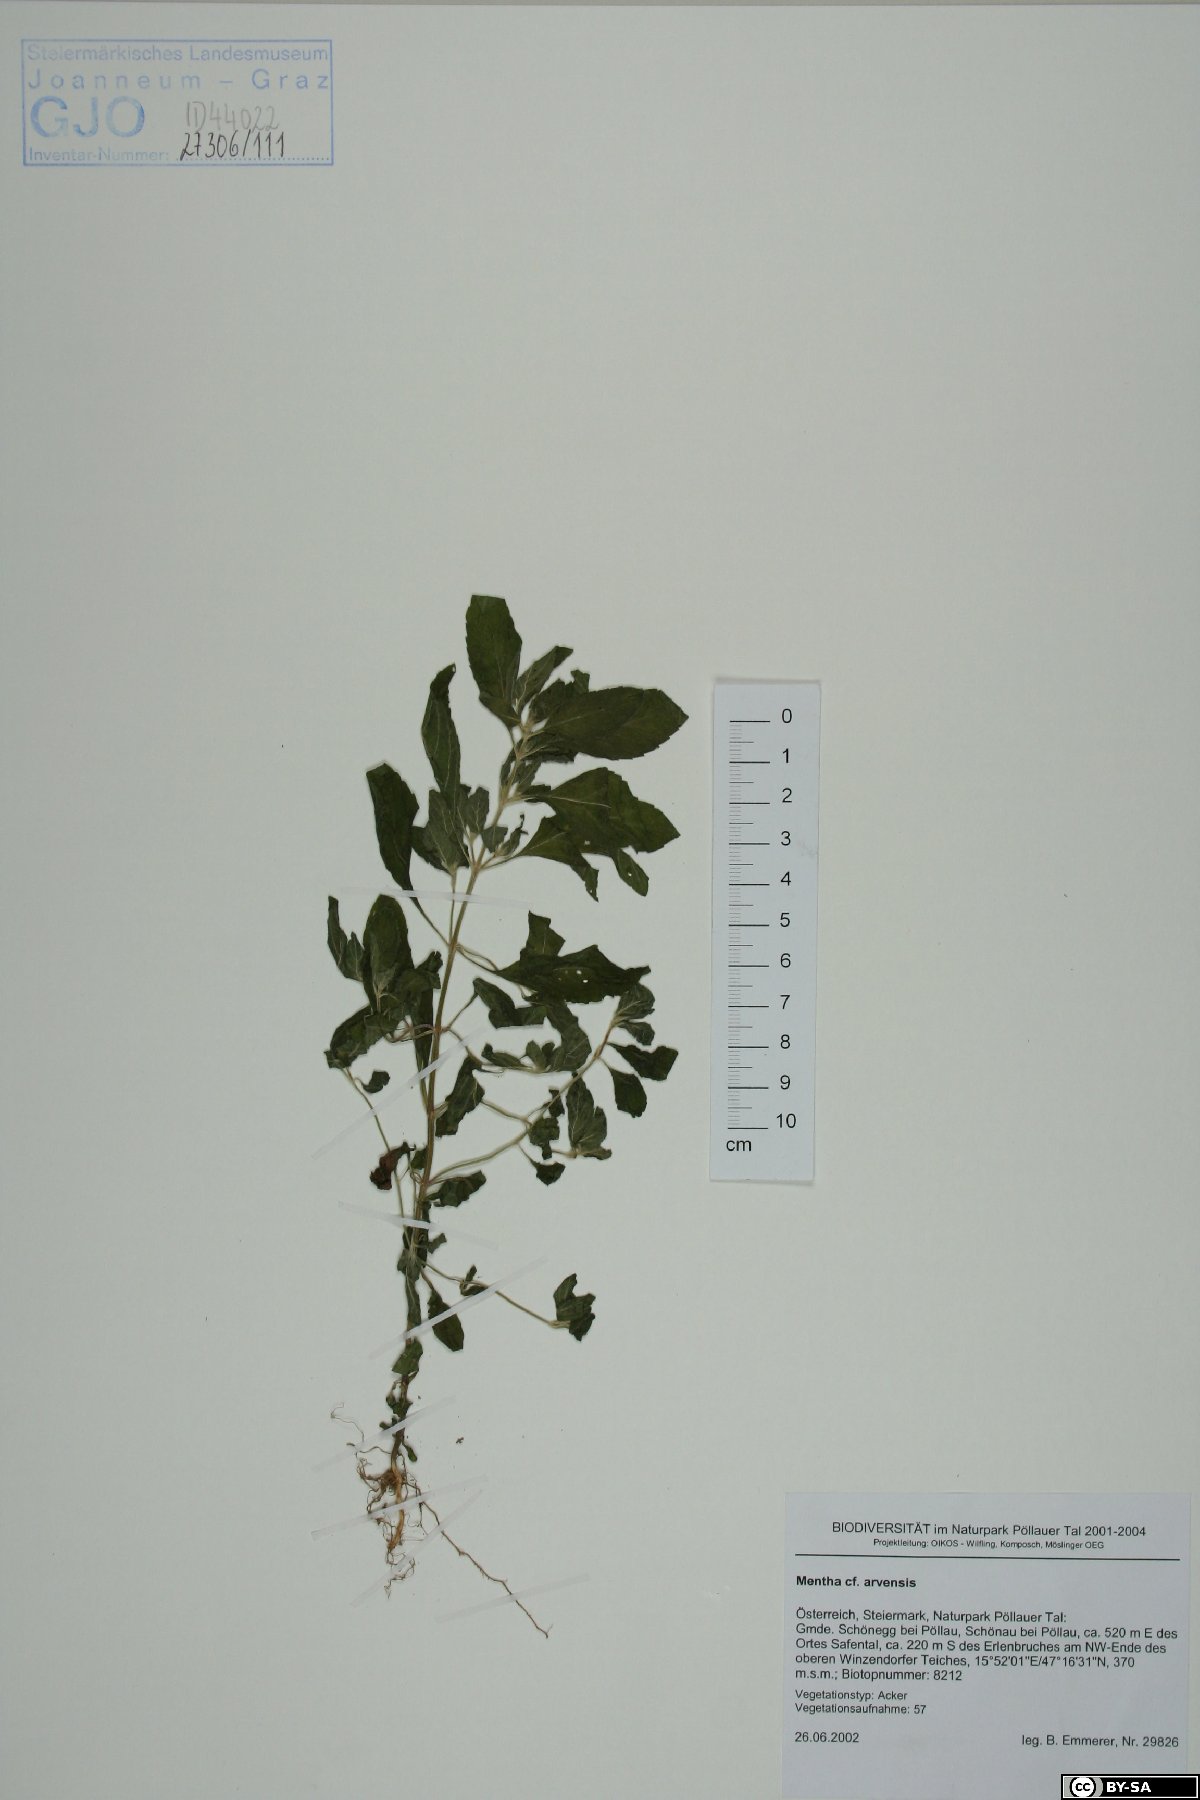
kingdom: Plantae
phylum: Tracheophyta
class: Magnoliopsida
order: Lamiales
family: Lamiaceae
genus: Mentha
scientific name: Mentha arvensis
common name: Corn mint
